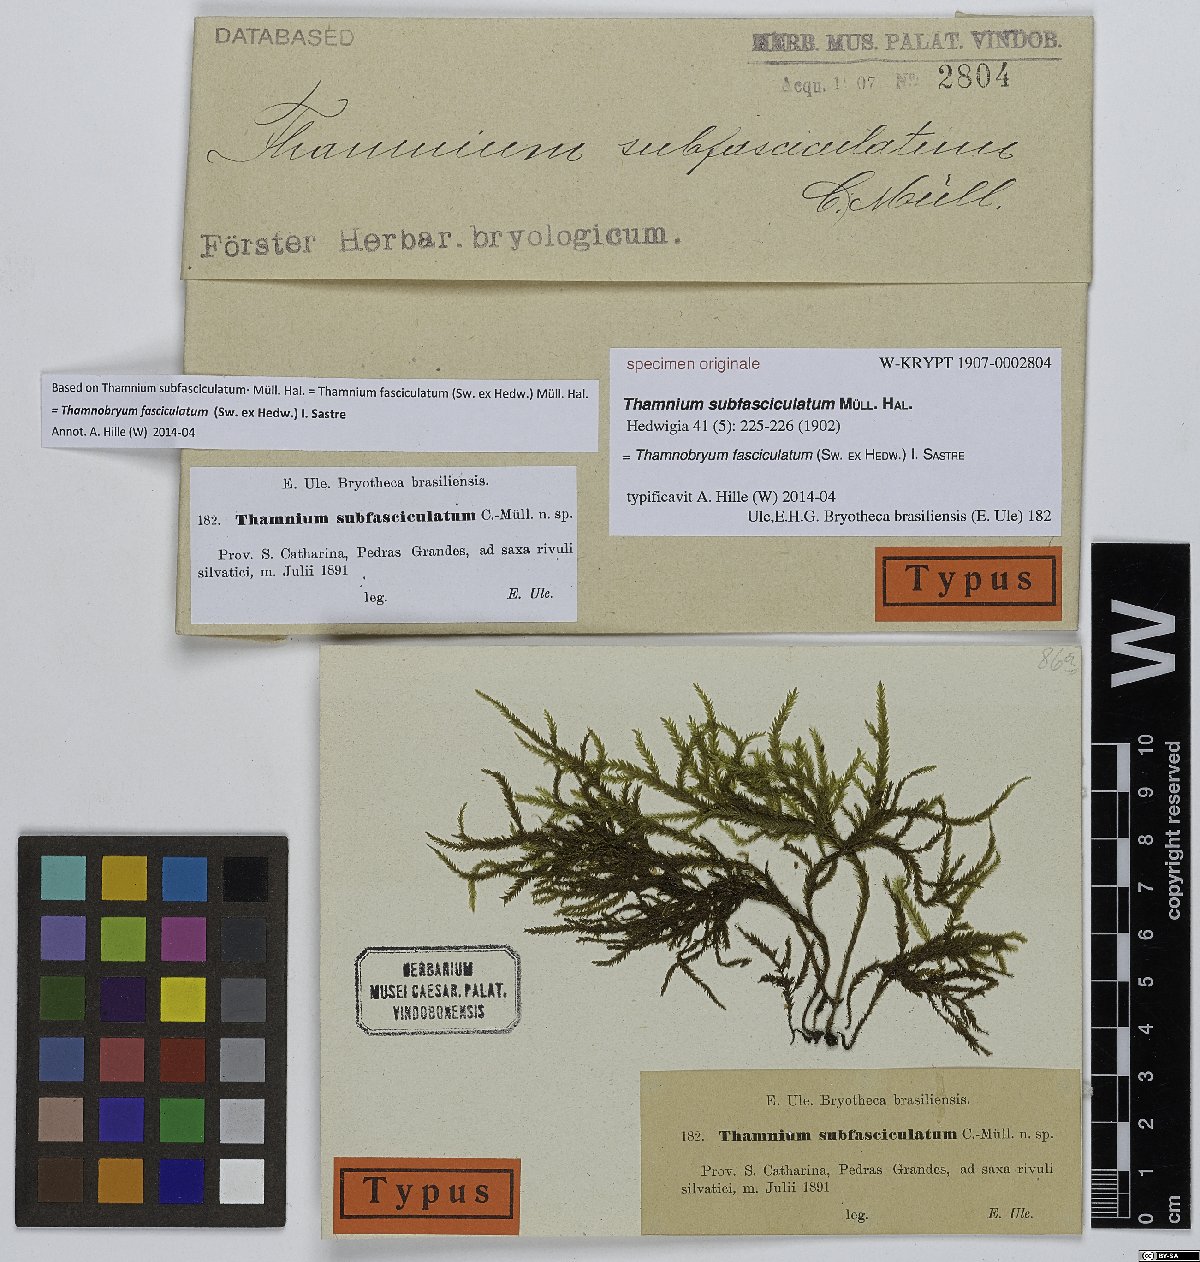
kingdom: Plantae
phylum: Bryophyta
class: Bryopsida
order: Hypnales
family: Neckeraceae
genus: Thamnium
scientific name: Thamnium
